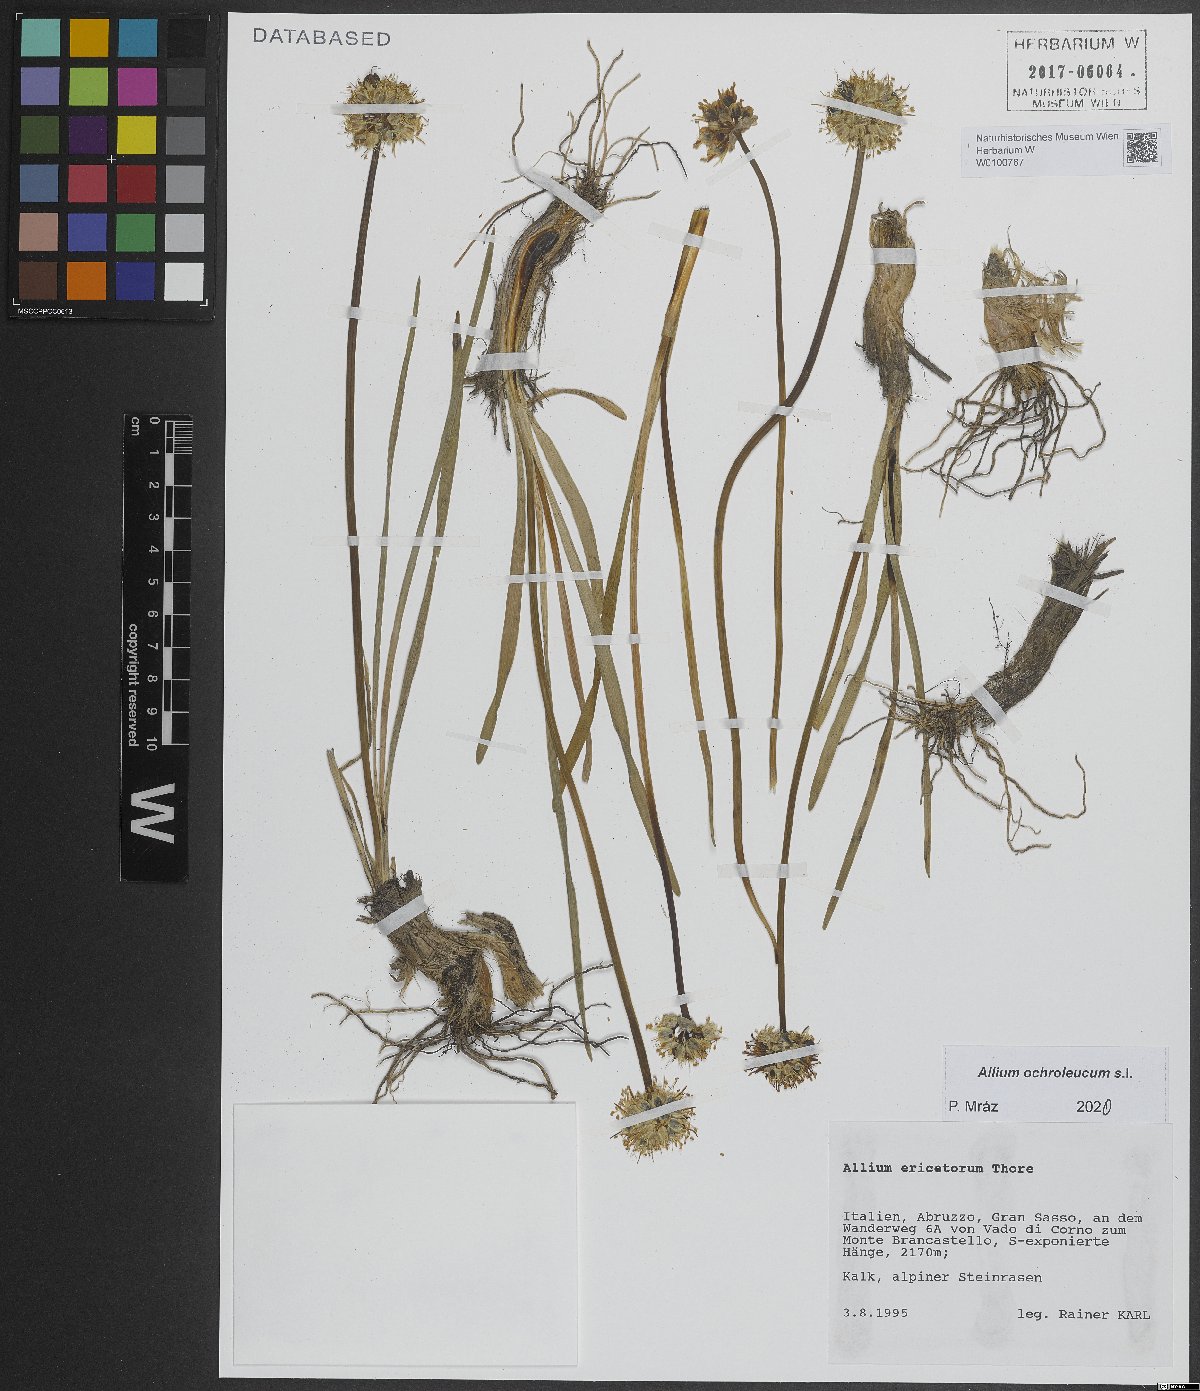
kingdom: Plantae
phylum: Tracheophyta
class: Liliopsida
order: Asparagales
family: Amaryllidaceae
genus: Allium
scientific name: Allium ericetorum
